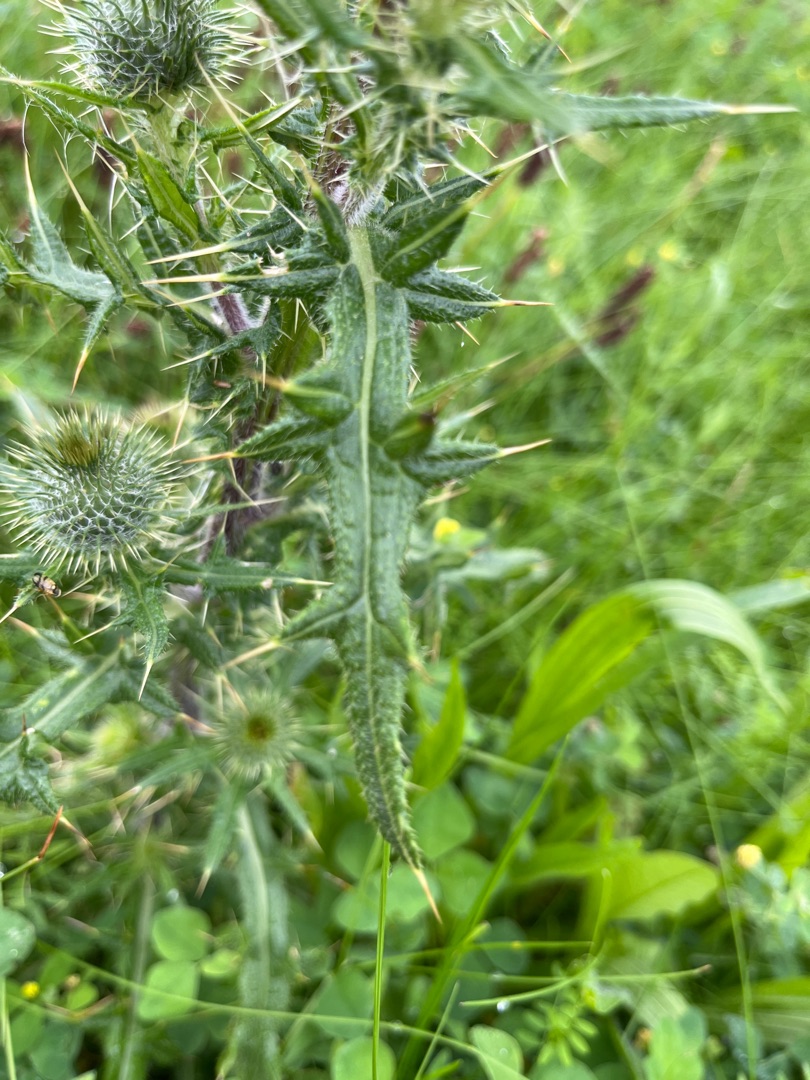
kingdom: Plantae
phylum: Tracheophyta
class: Magnoliopsida
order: Asterales
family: Asteraceae
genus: Cirsium
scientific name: Cirsium vulgare
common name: Horse-tidsel
